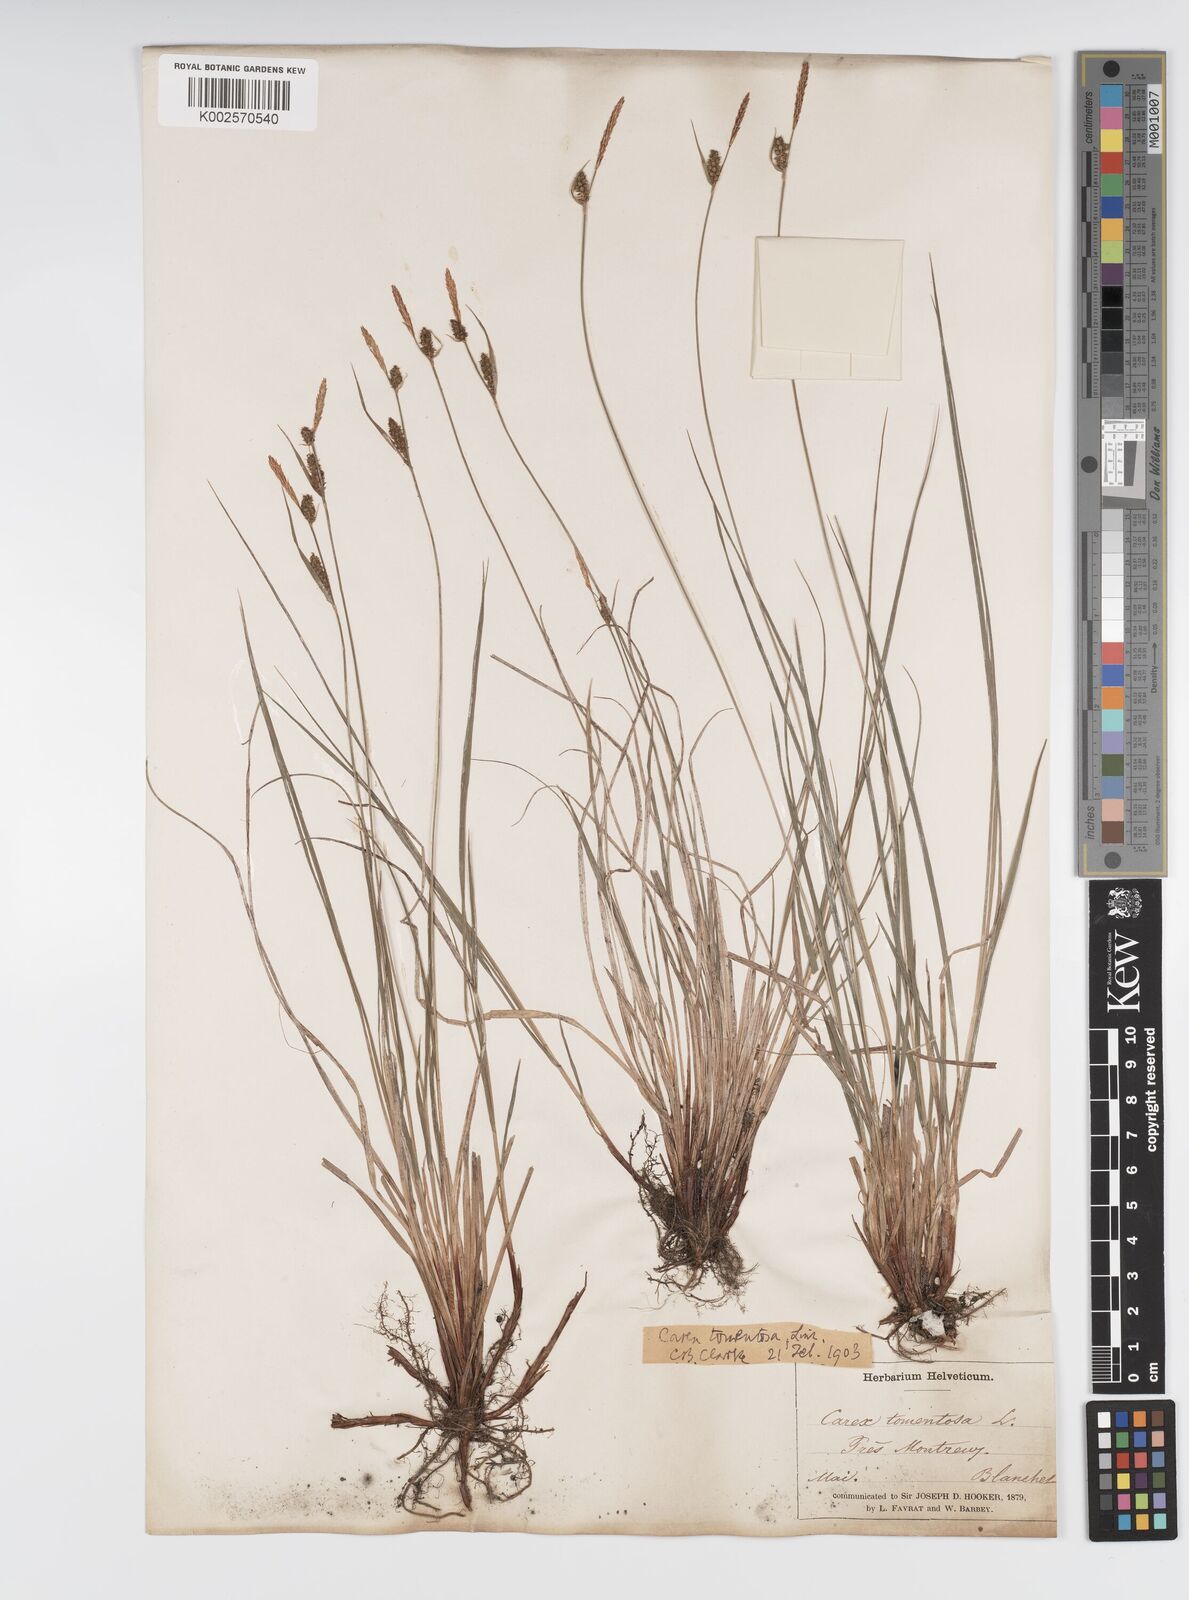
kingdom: Plantae
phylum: Tracheophyta
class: Liliopsida
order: Poales
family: Cyperaceae
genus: Carex
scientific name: Carex montana
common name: Soft-leaved sedge
